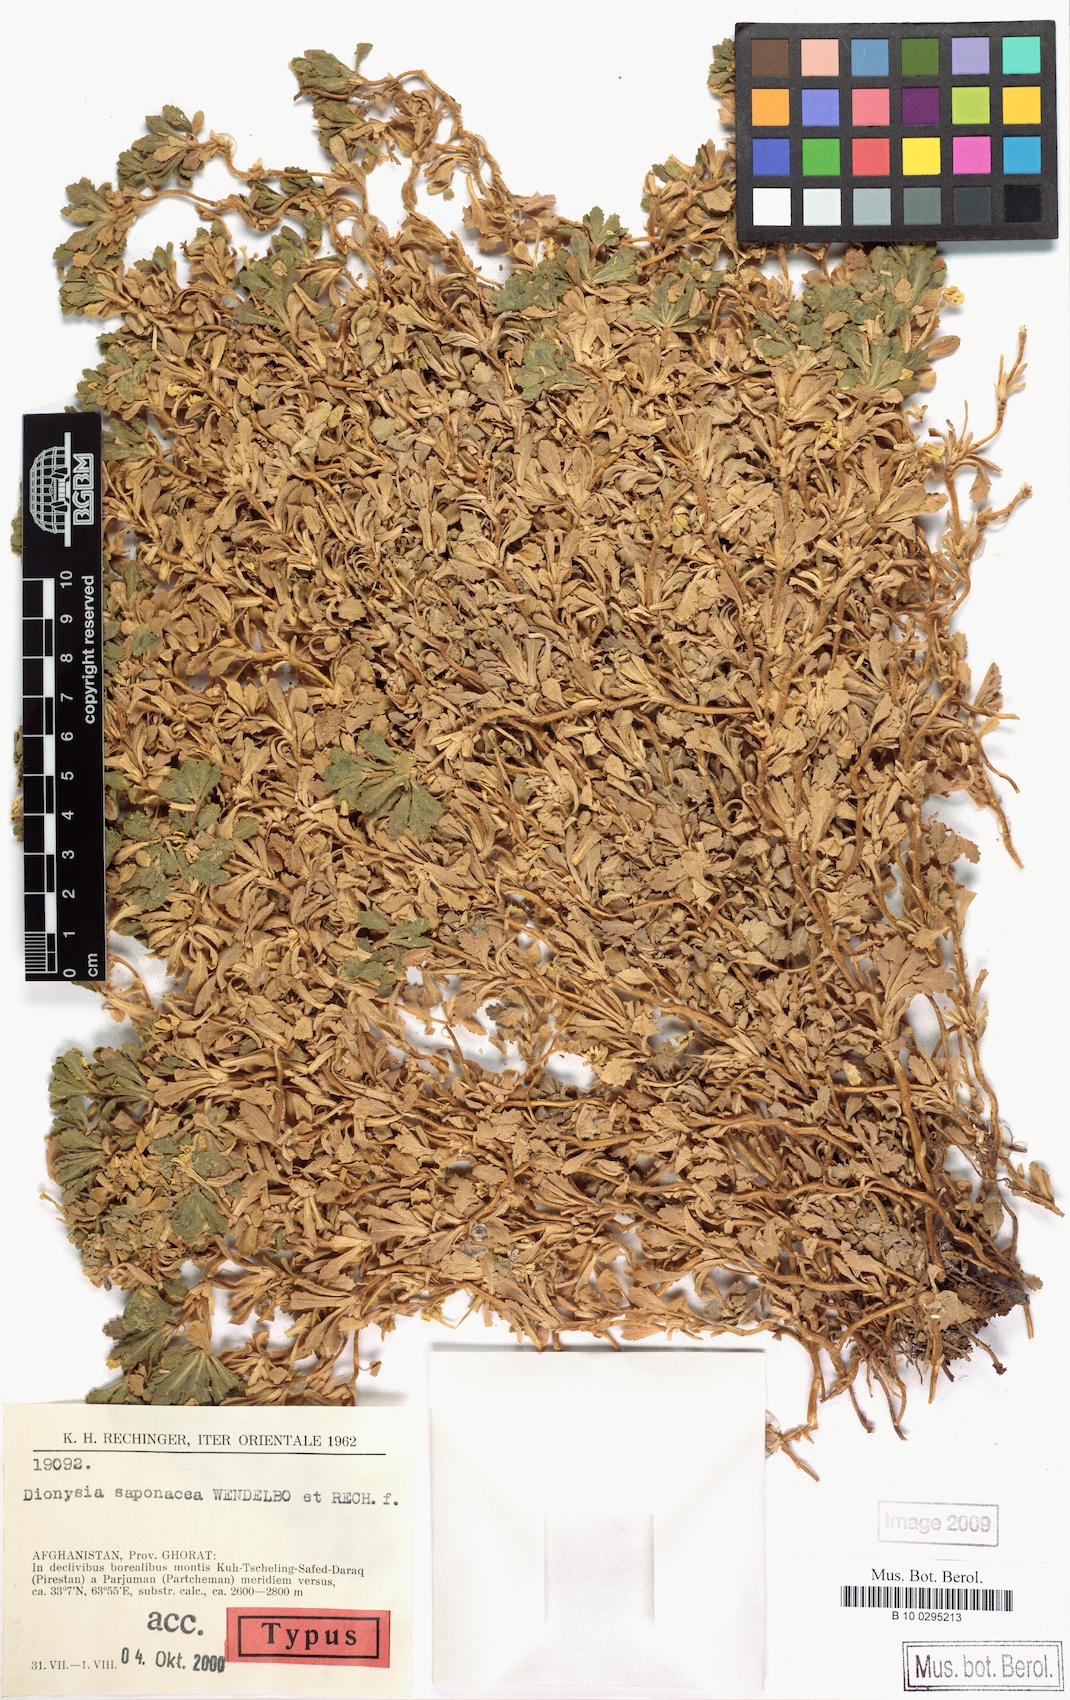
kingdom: Plantae
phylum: Tracheophyta
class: Magnoliopsida
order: Ericales
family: Primulaceae
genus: Dionysia
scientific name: Dionysia saponacea
